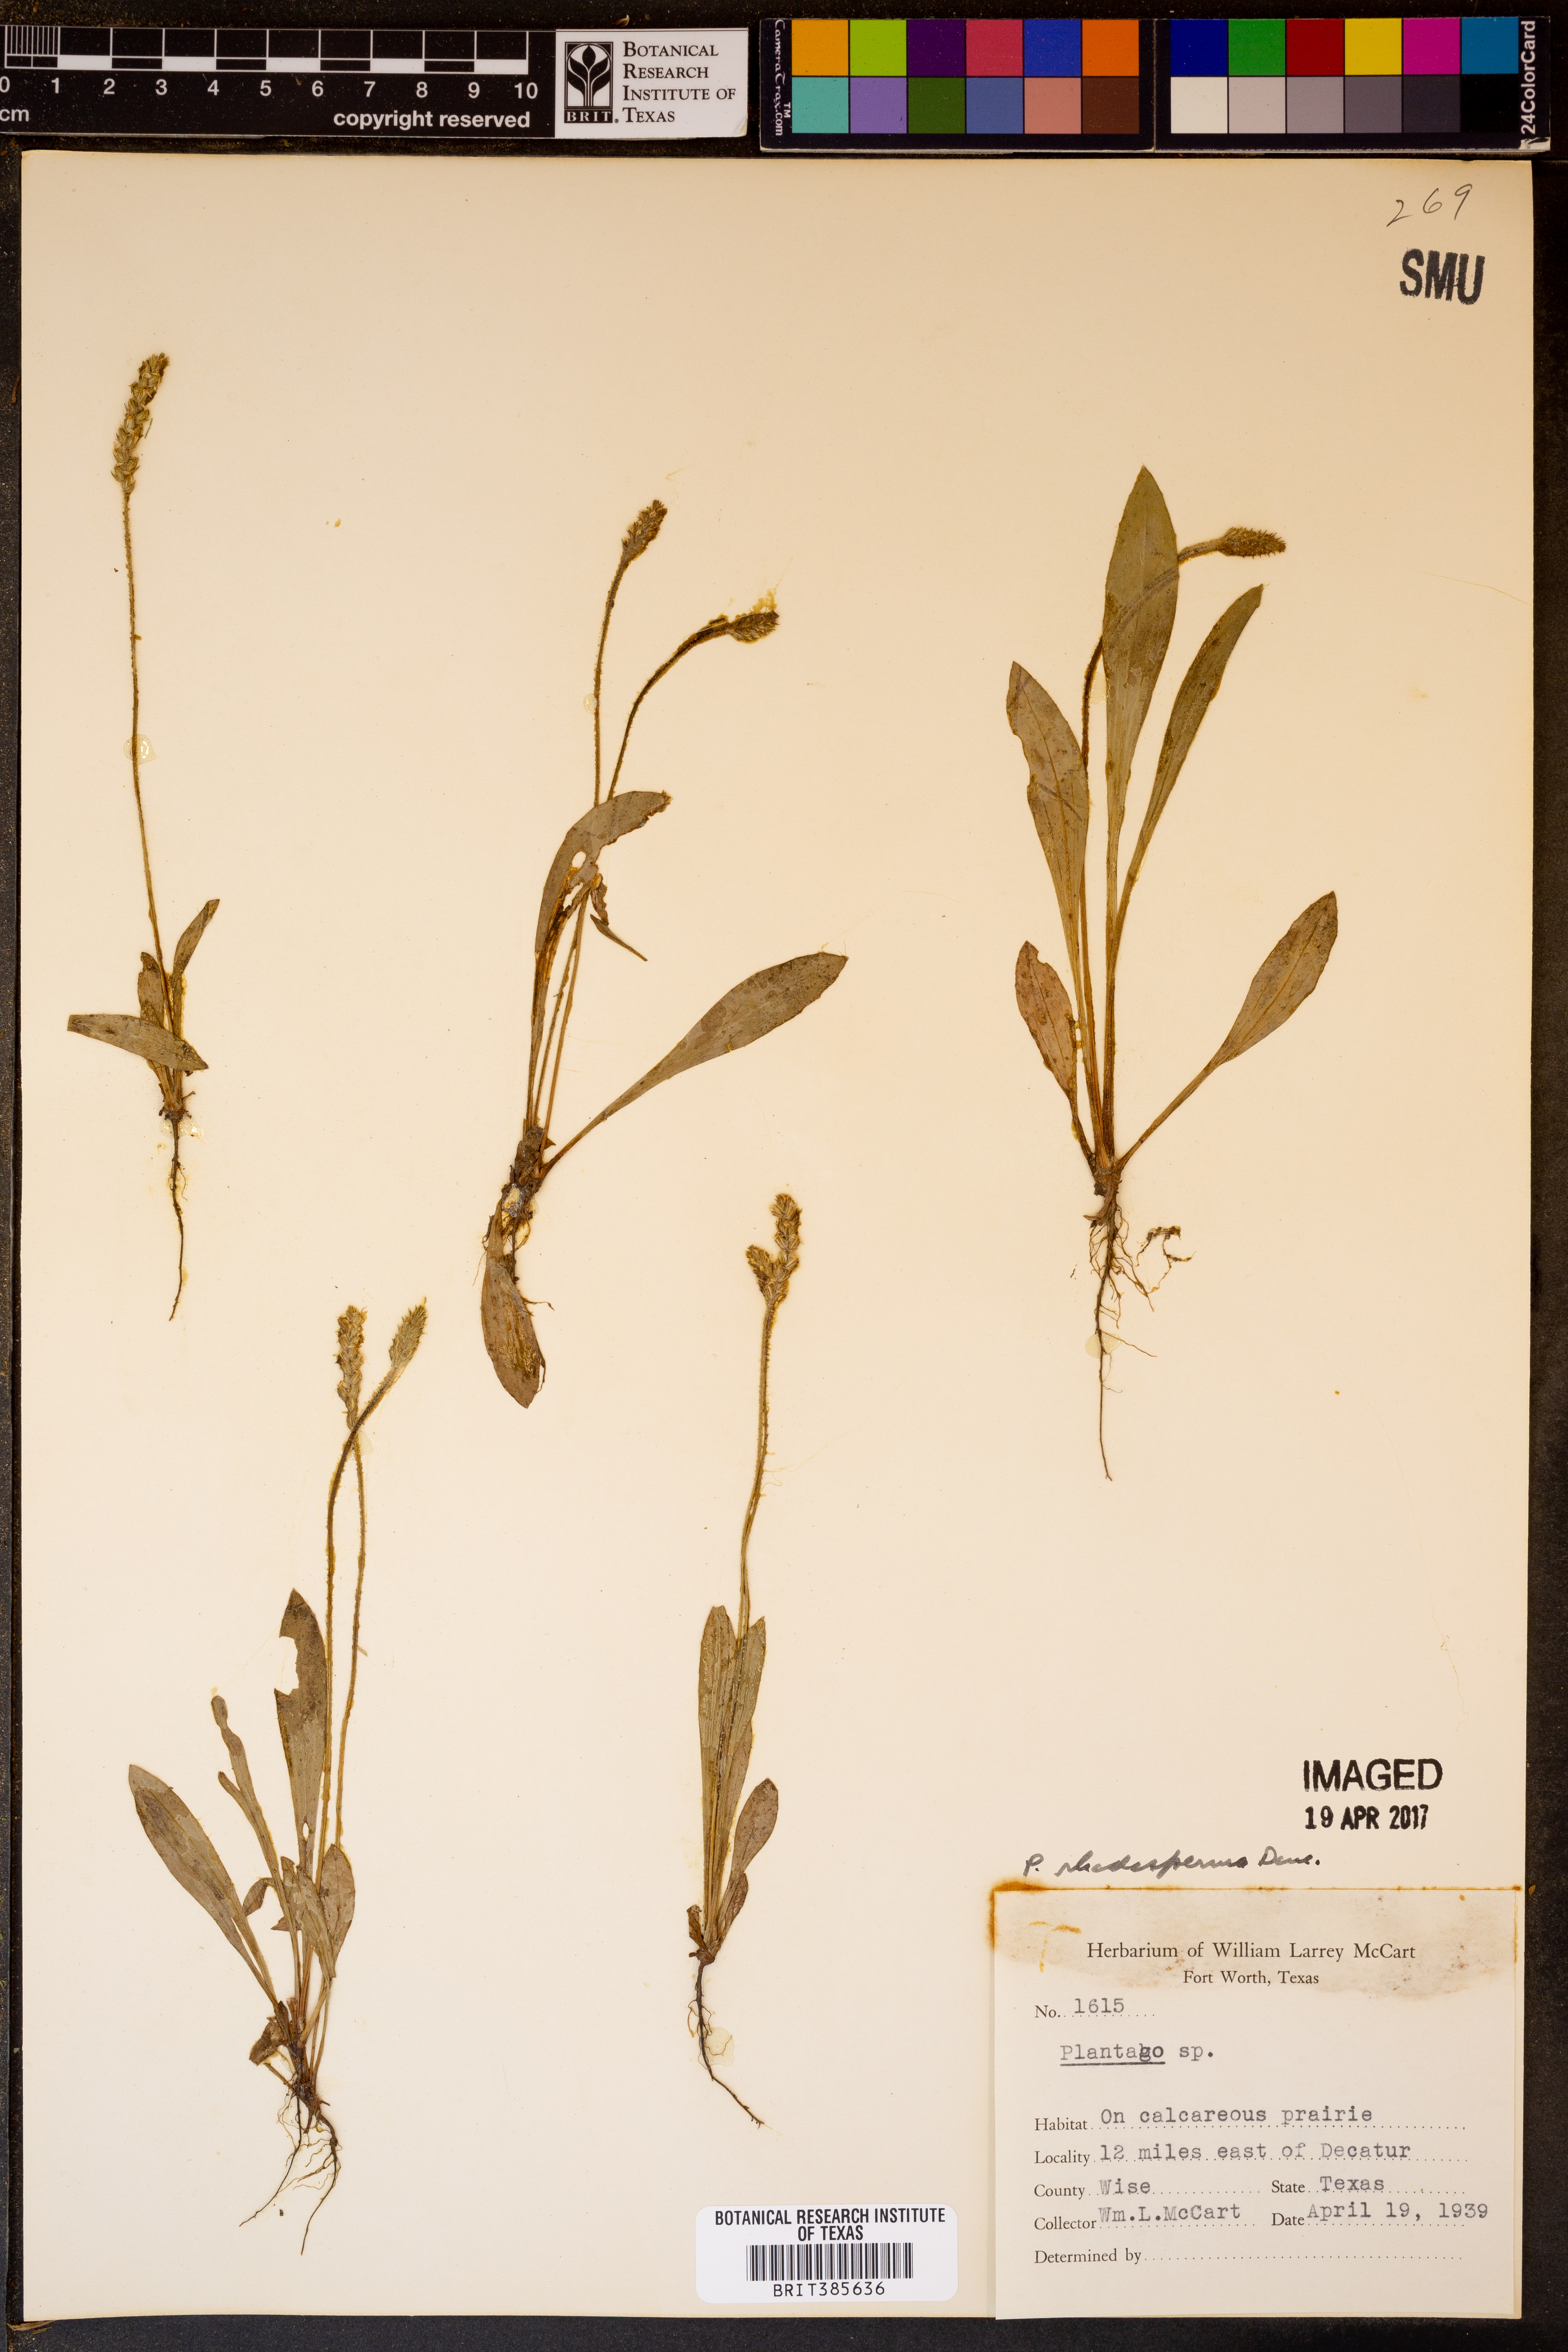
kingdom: Plantae
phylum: Tracheophyta
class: Magnoliopsida
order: Lamiales
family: Plantaginaceae
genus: Plantago
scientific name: Plantago rhodosperma
